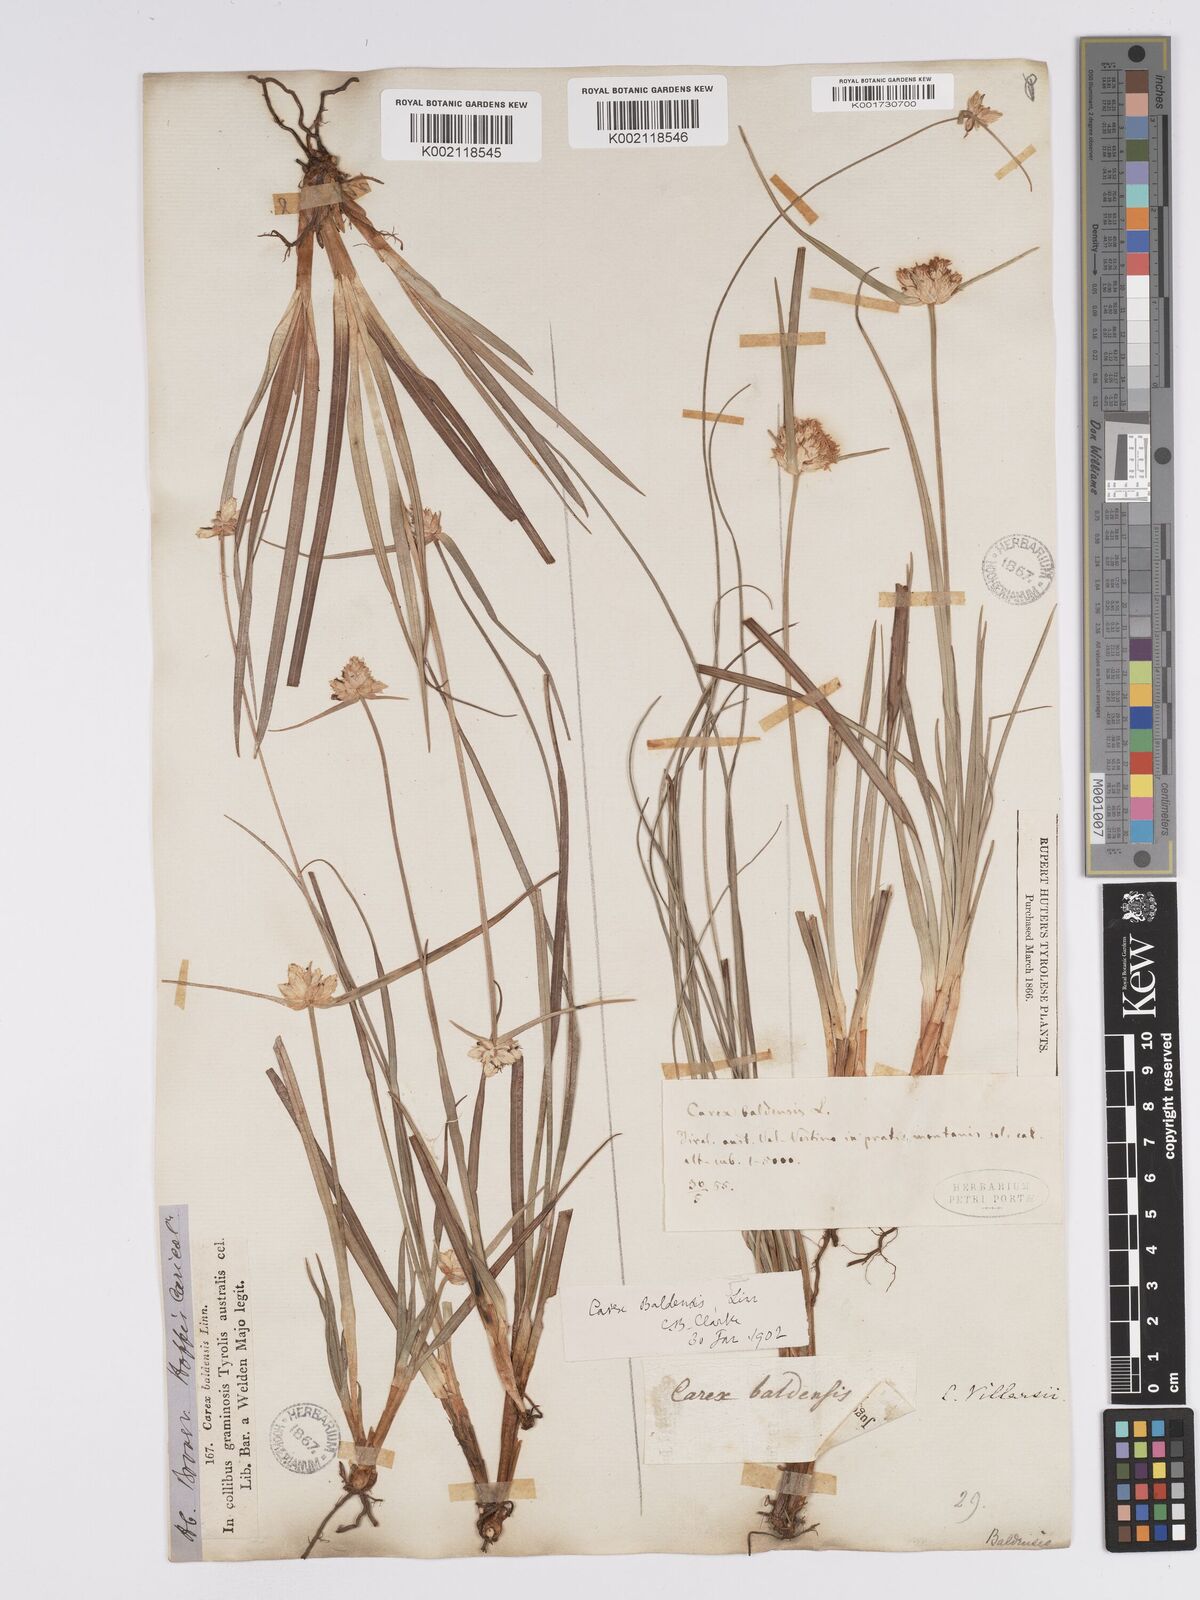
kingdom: Plantae
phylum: Tracheophyta
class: Liliopsida
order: Poales
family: Cyperaceae
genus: Carex
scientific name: Carex baldensis
